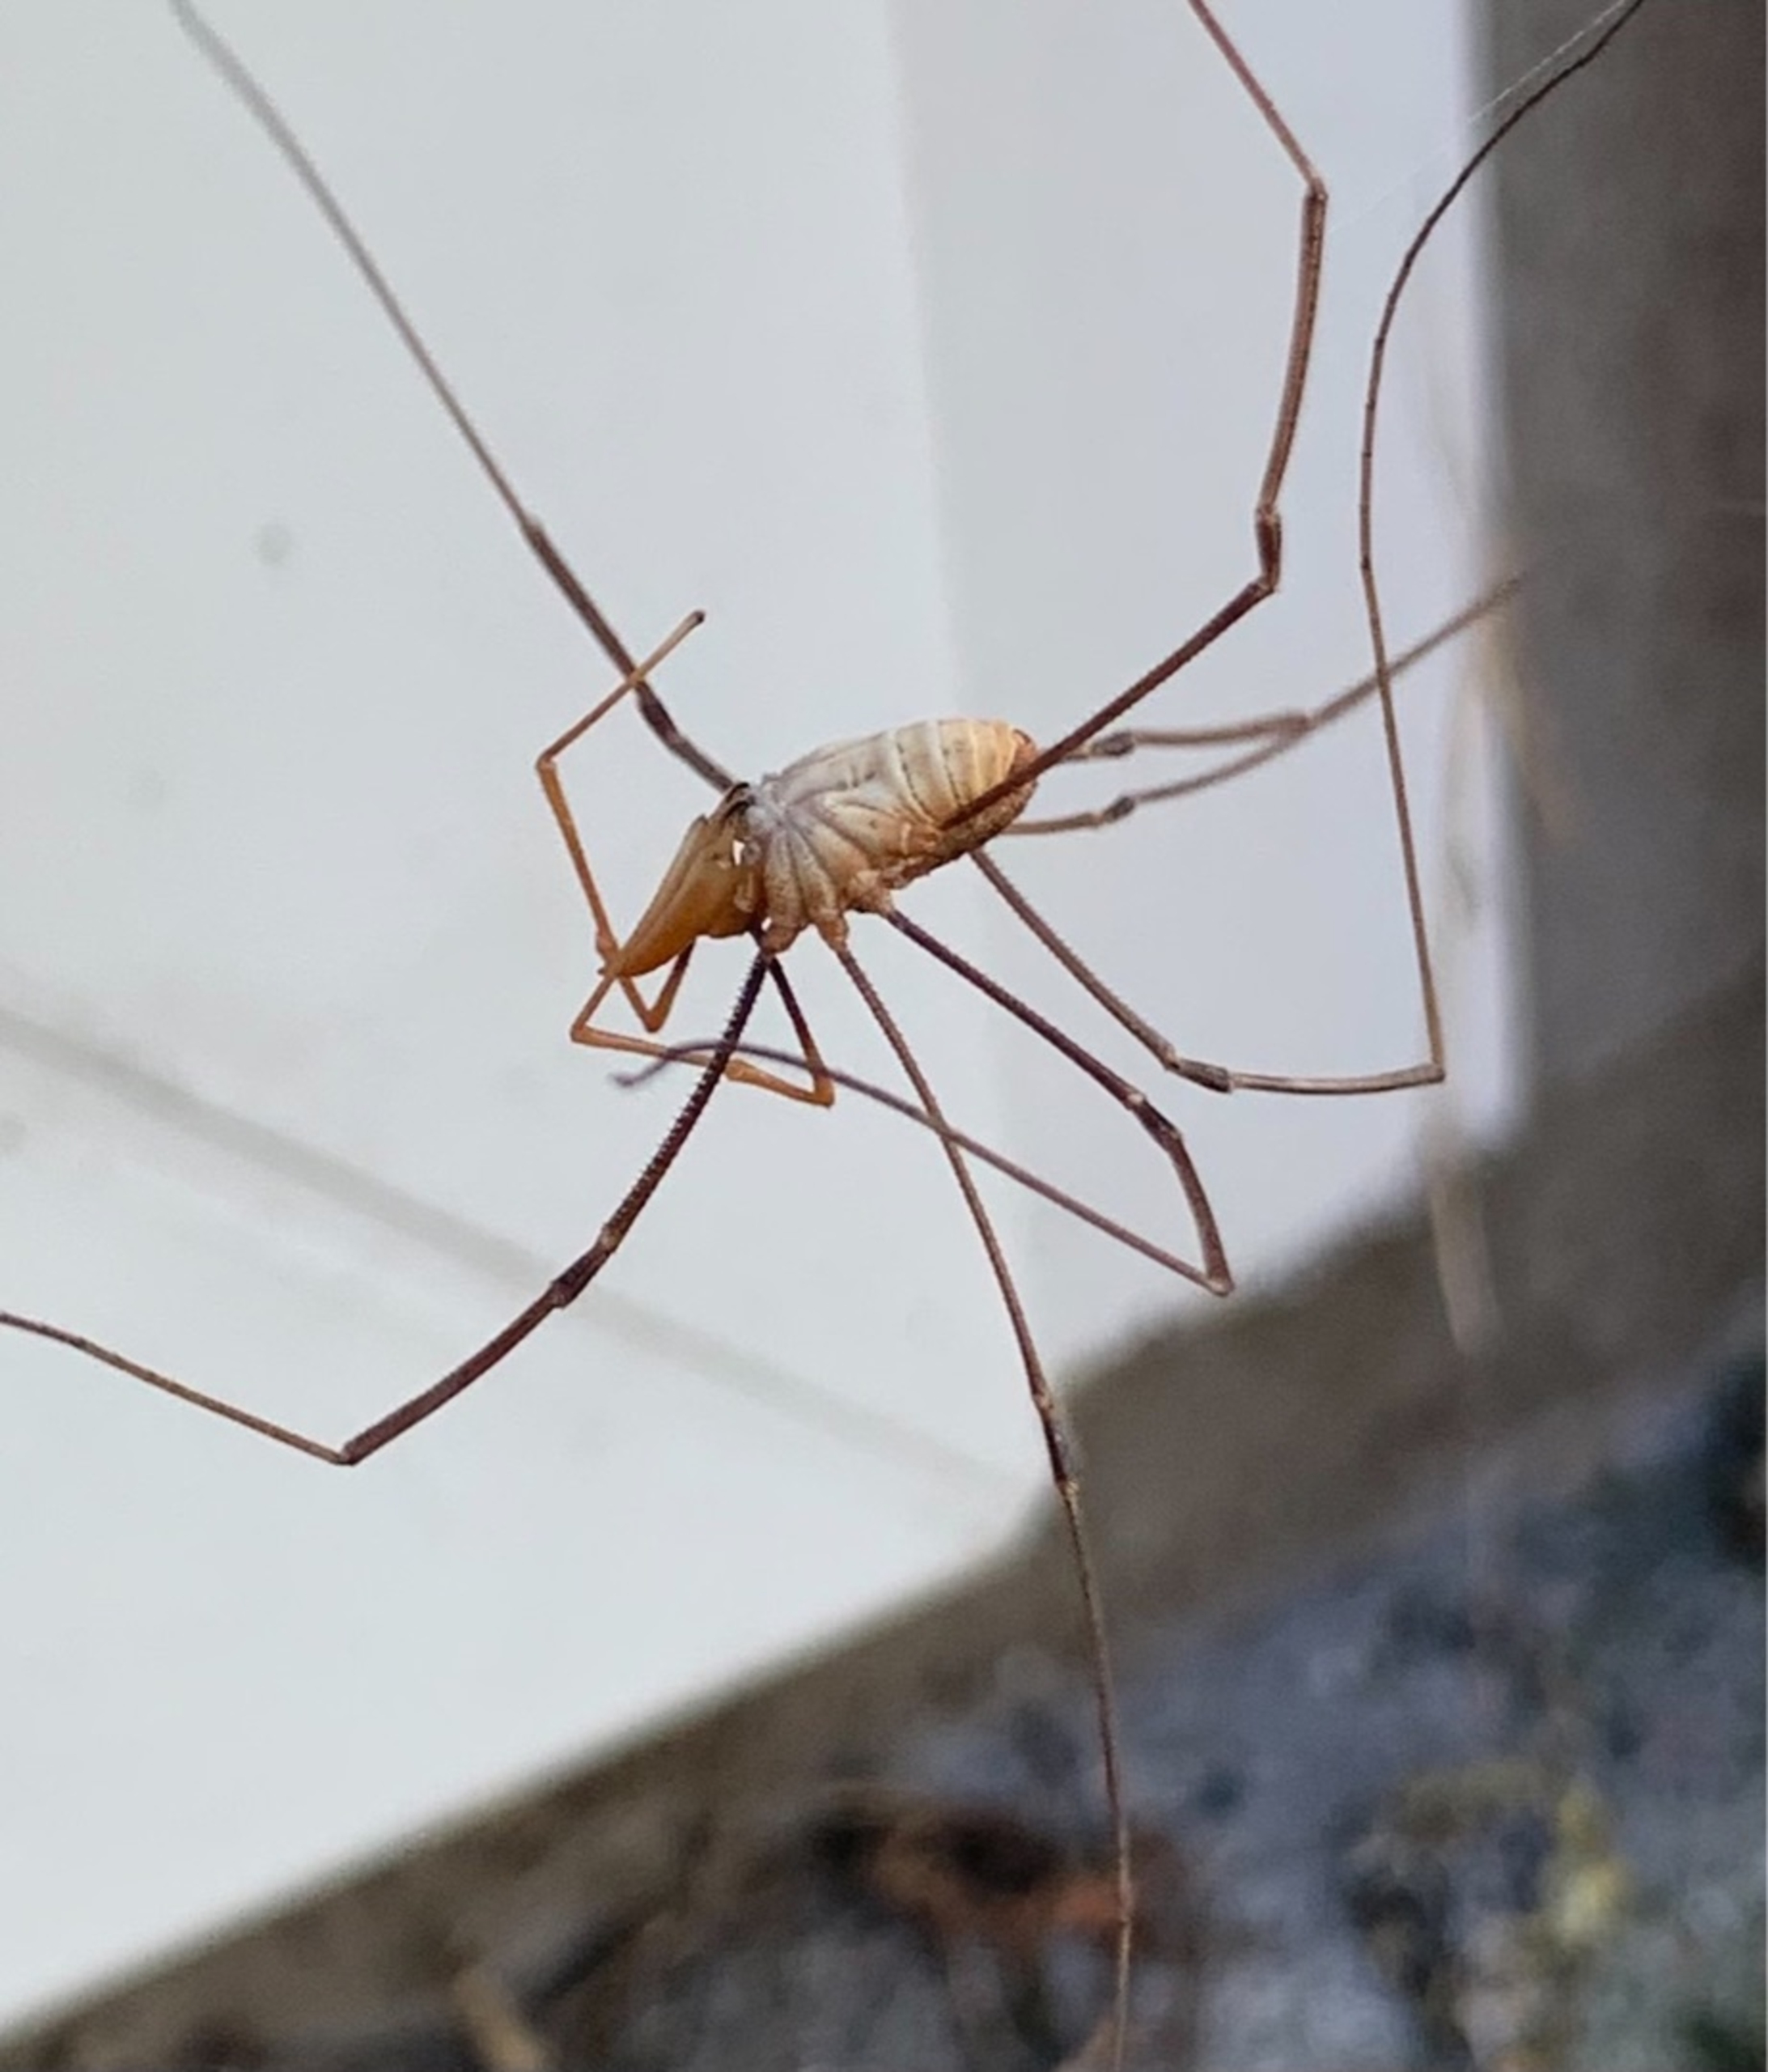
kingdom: Animalia
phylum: Arthropoda
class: Arachnida
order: Opiliones
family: Phalangiidae
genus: Phalangium
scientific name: Phalangium opilio
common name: Hornmejer
